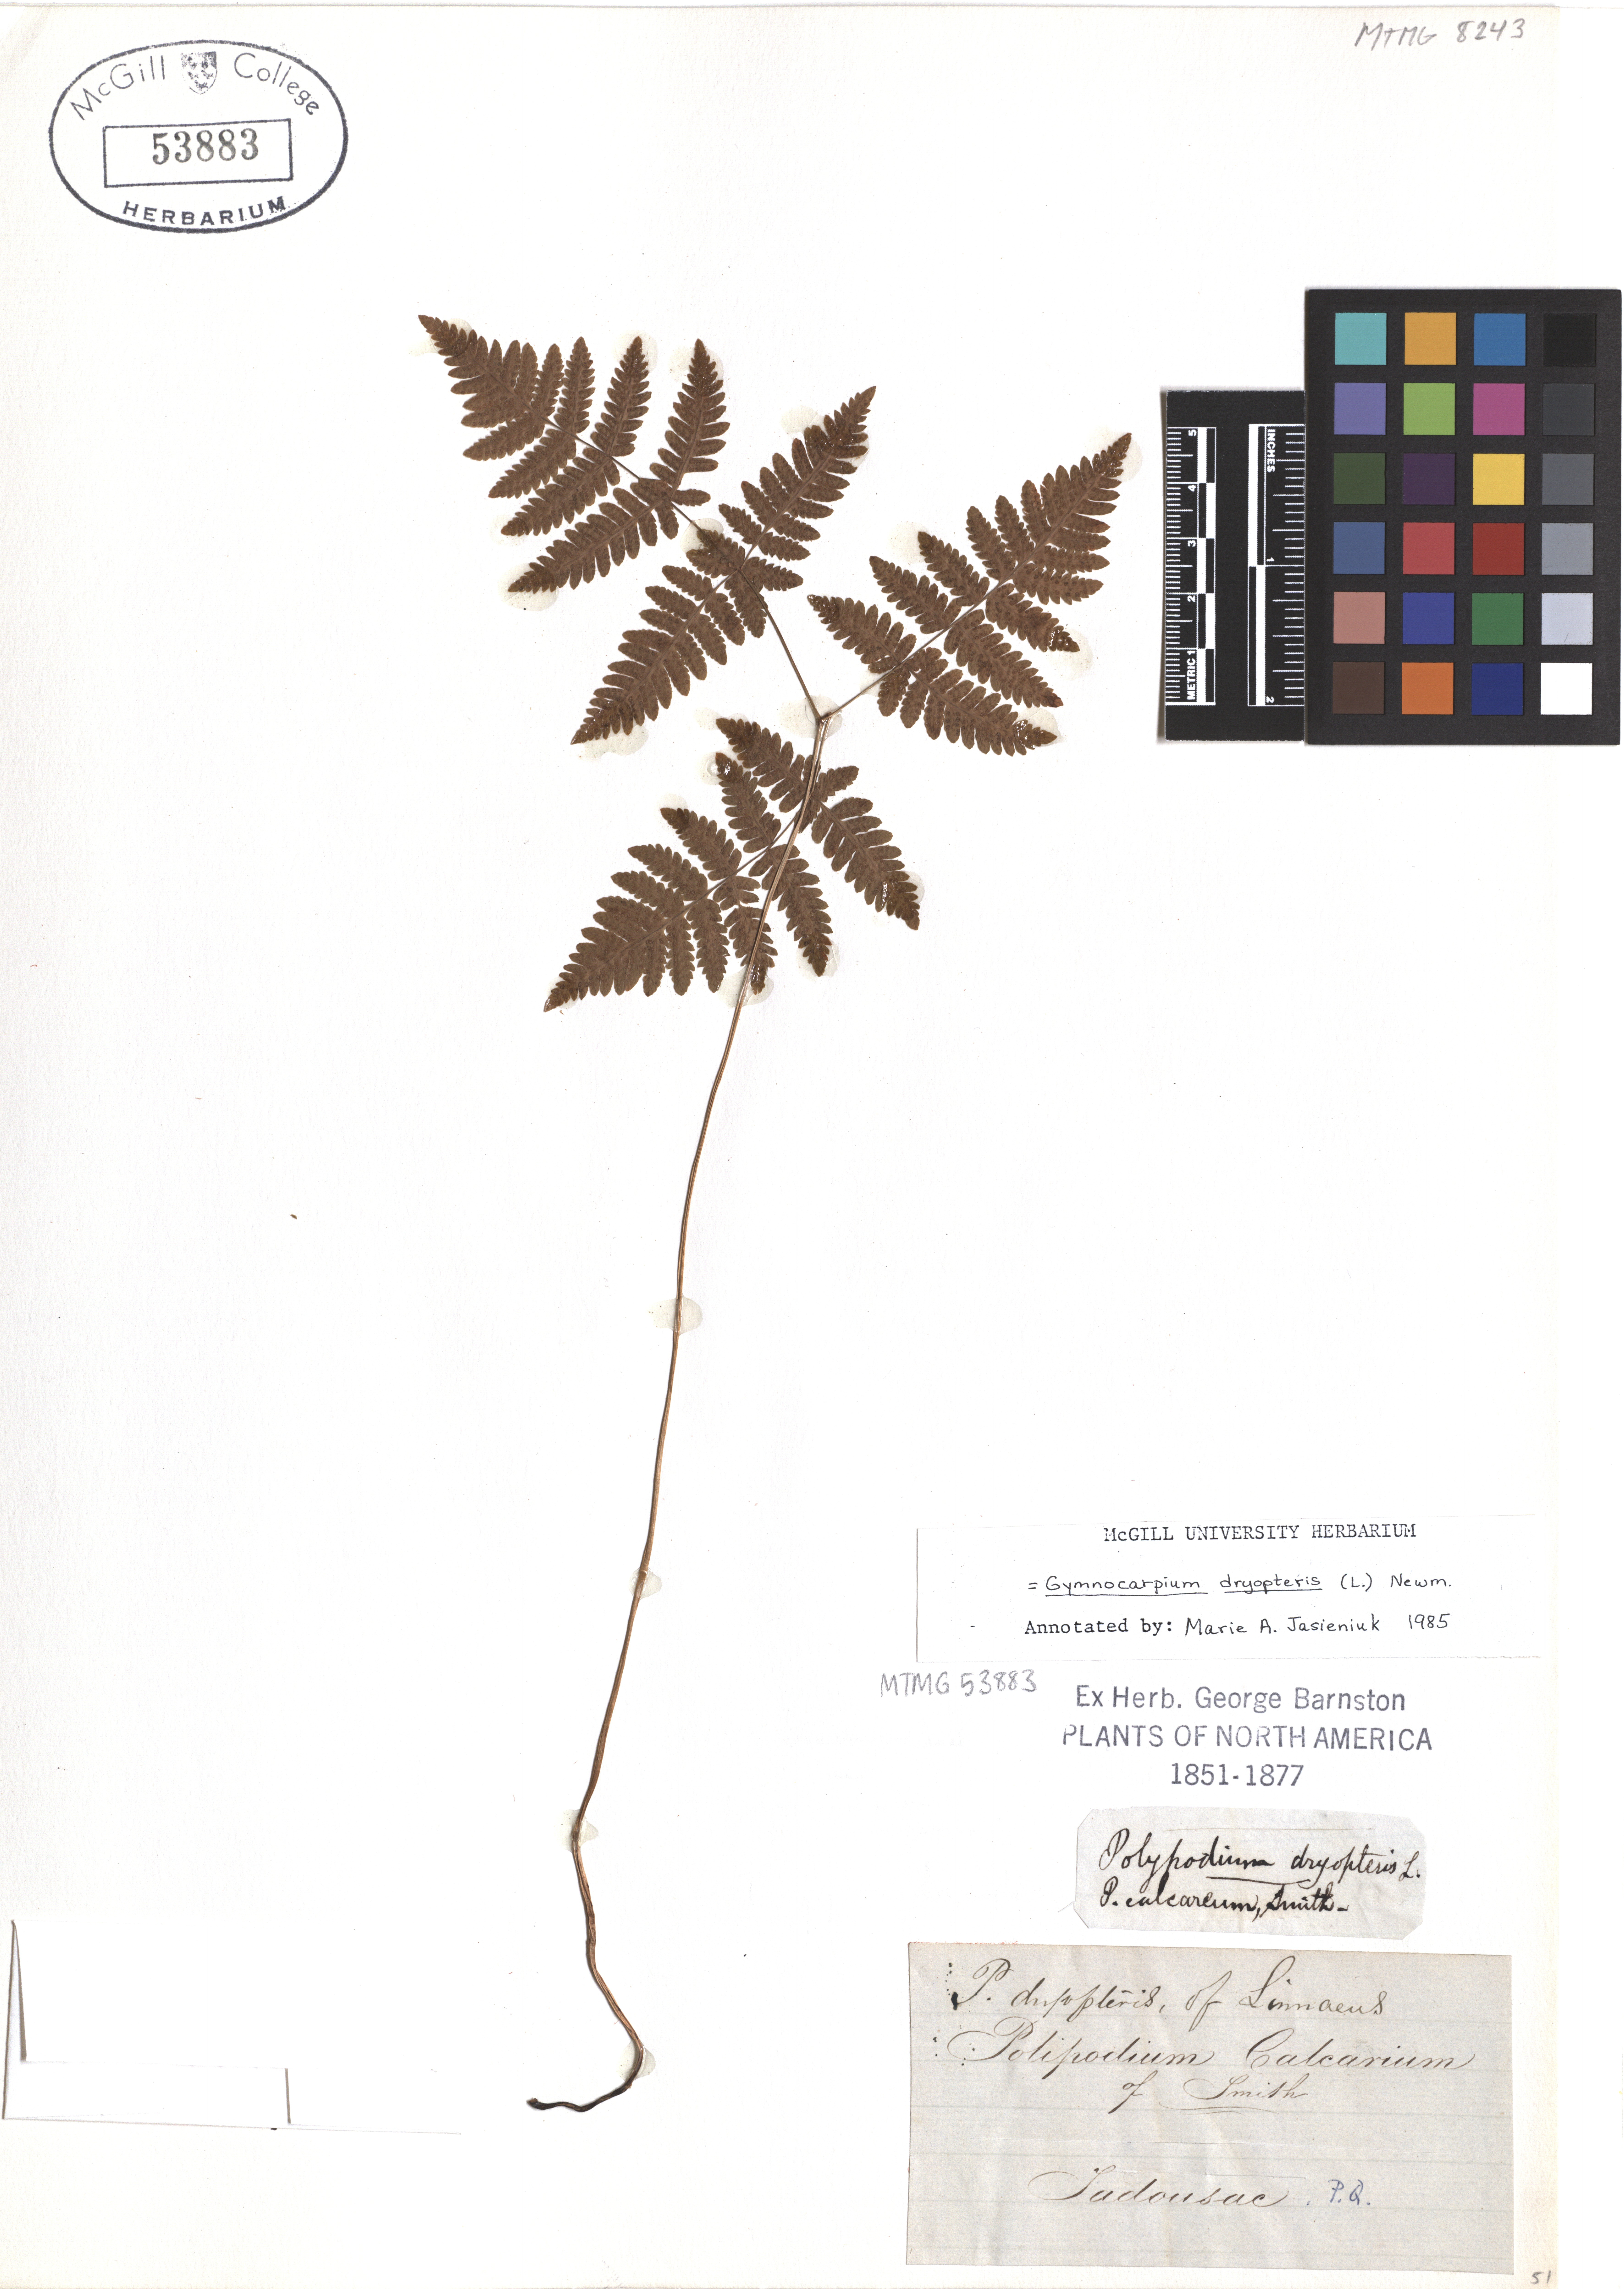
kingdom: Plantae
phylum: Tracheophyta
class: Polypodiopsida
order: Polypodiales
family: Cystopteridaceae
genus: Gymnocarpium
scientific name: Gymnocarpium dryopteris
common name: Oak fern
